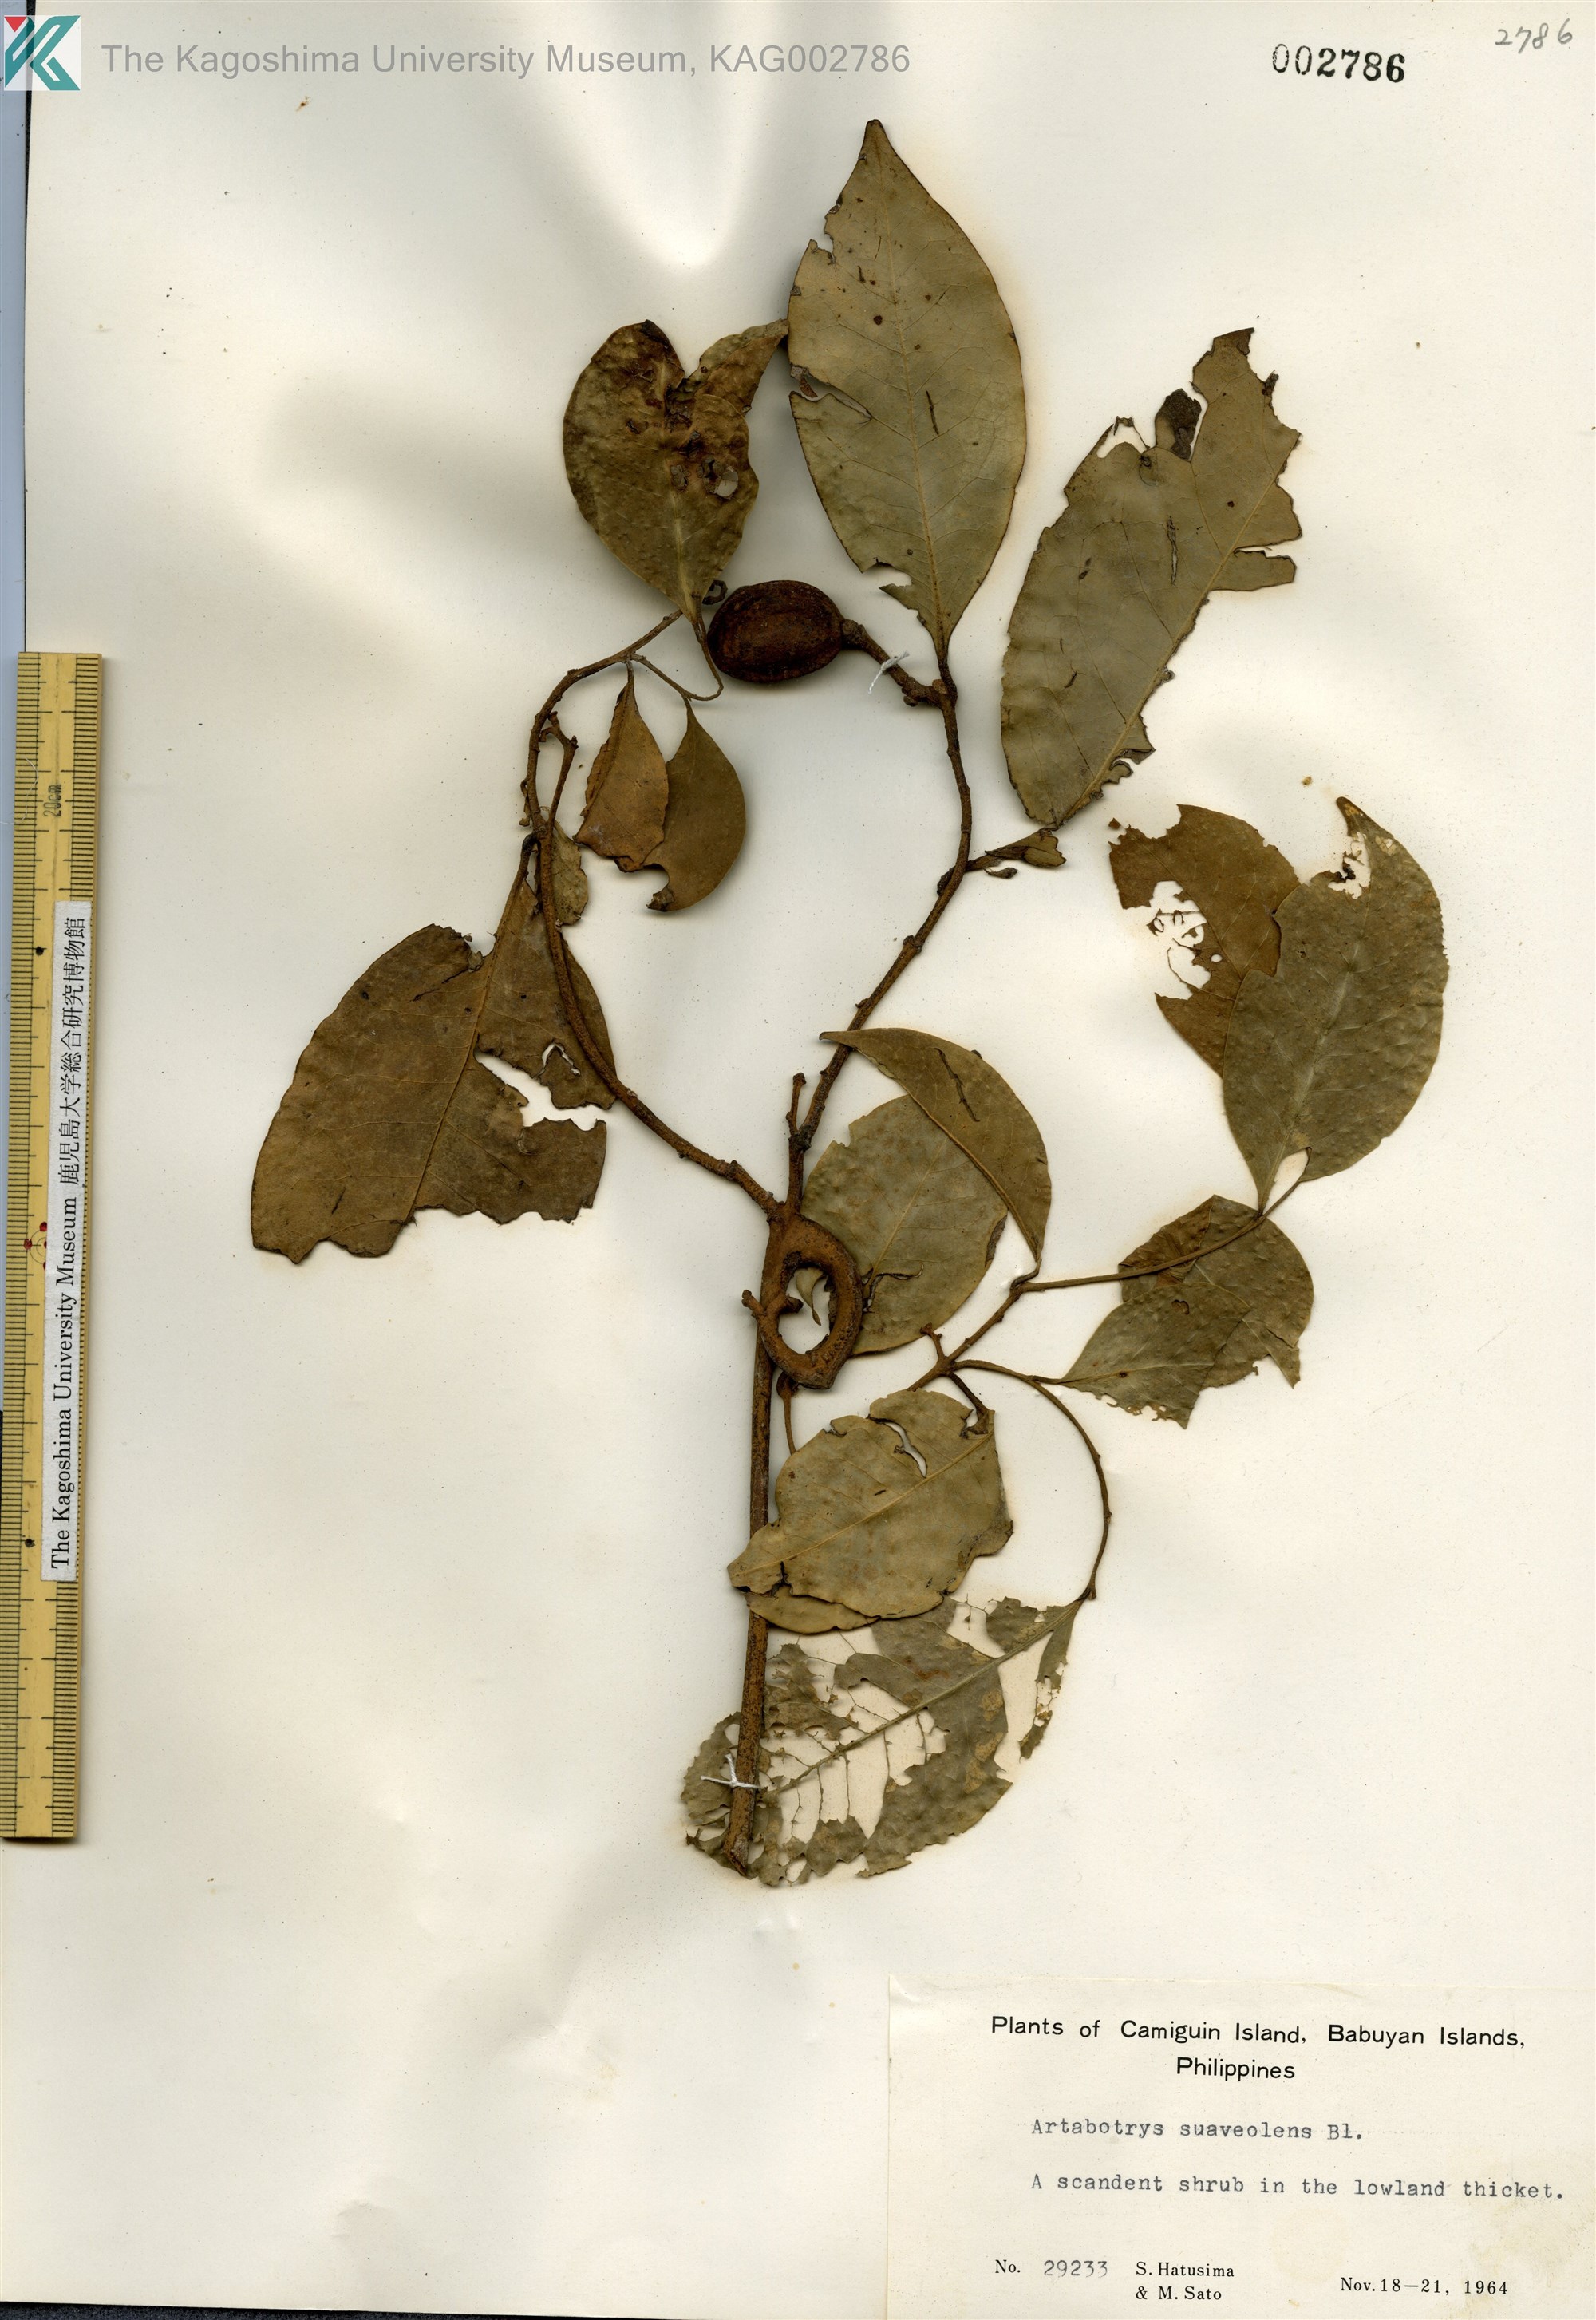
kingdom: Plantae
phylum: Tracheophyta
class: Magnoliopsida
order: Magnoliales
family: Annonaceae
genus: Artabotrys
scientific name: Artabotrys suaveolens
